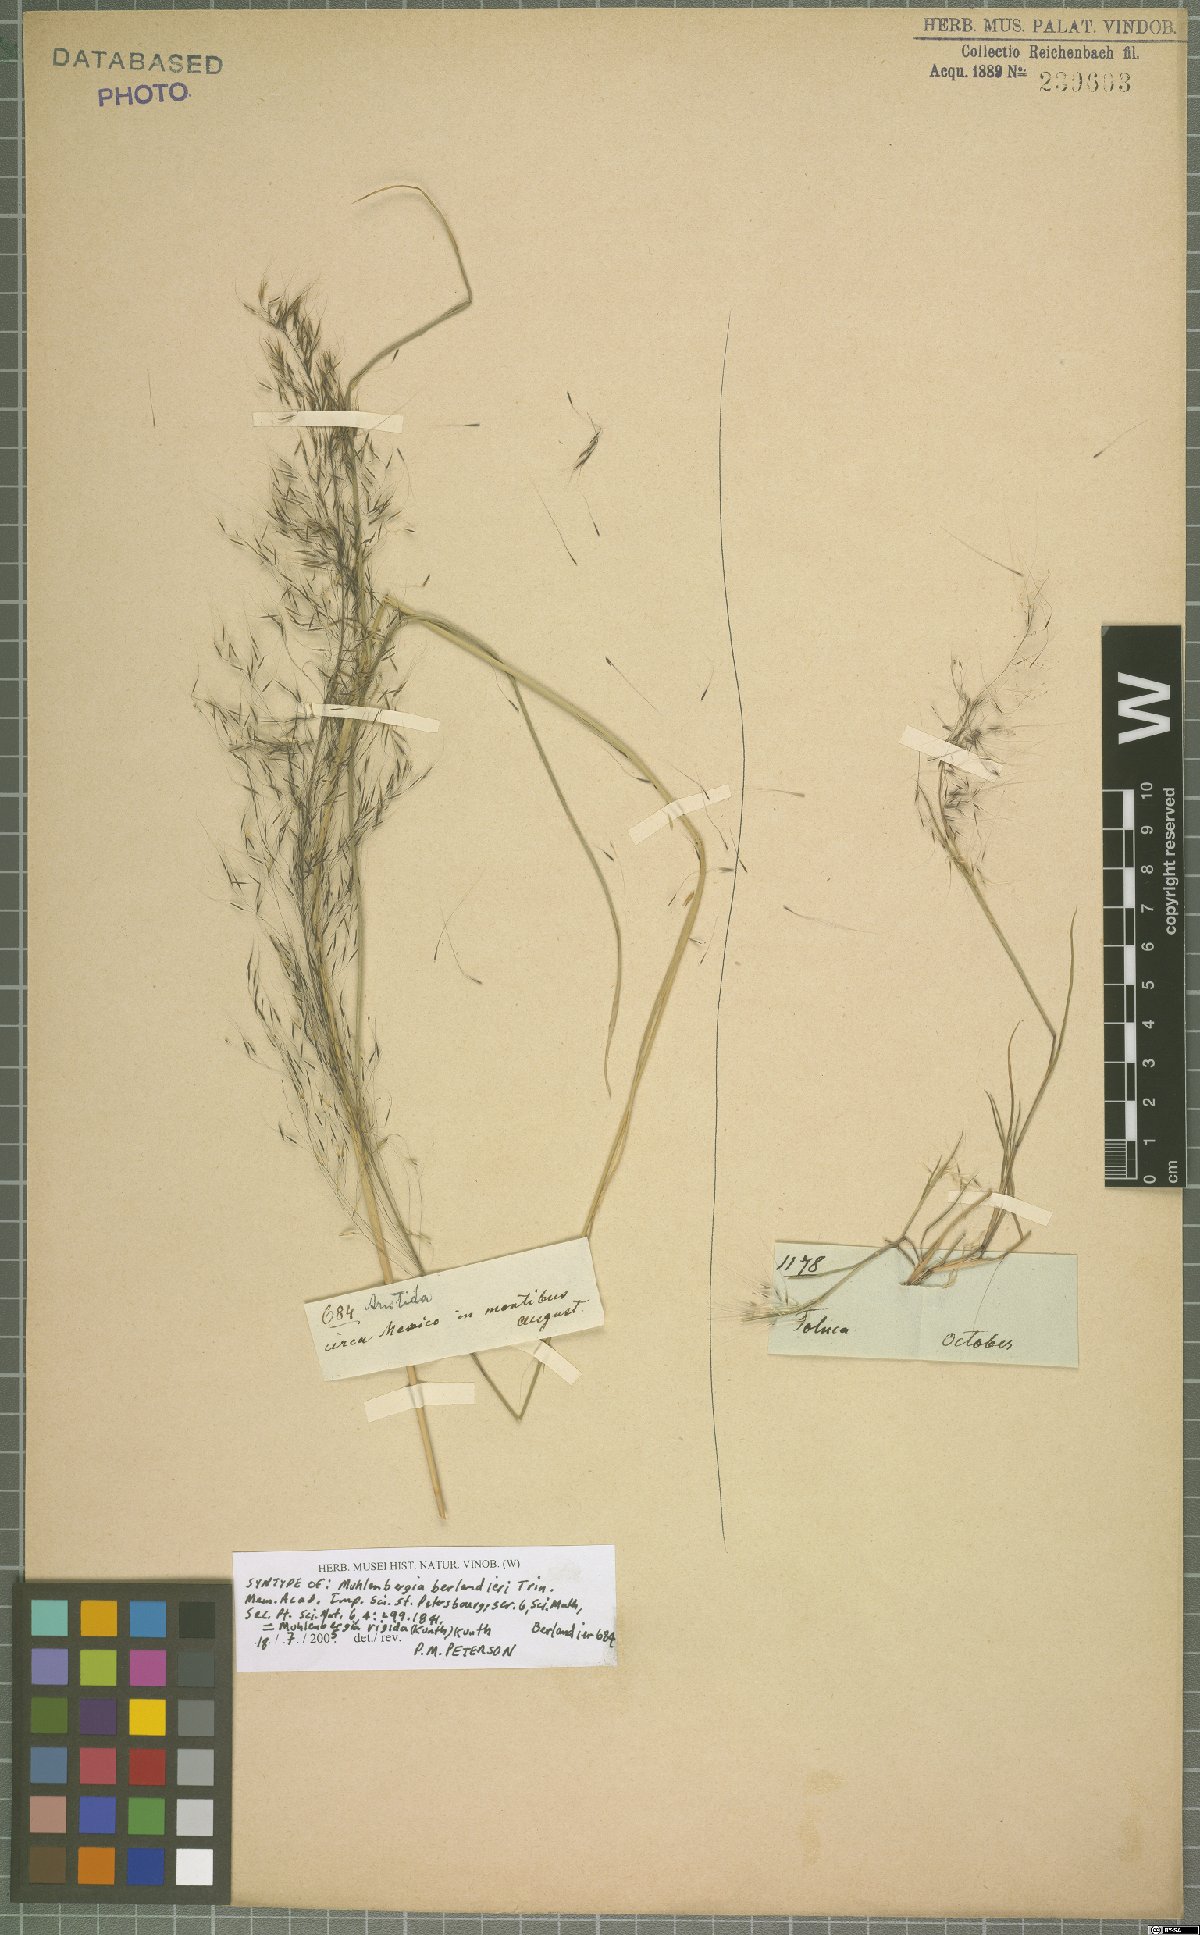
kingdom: Plantae
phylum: Tracheophyta
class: Liliopsida
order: Poales
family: Poaceae
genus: Muhlenbergia
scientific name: Muhlenbergia rigida
